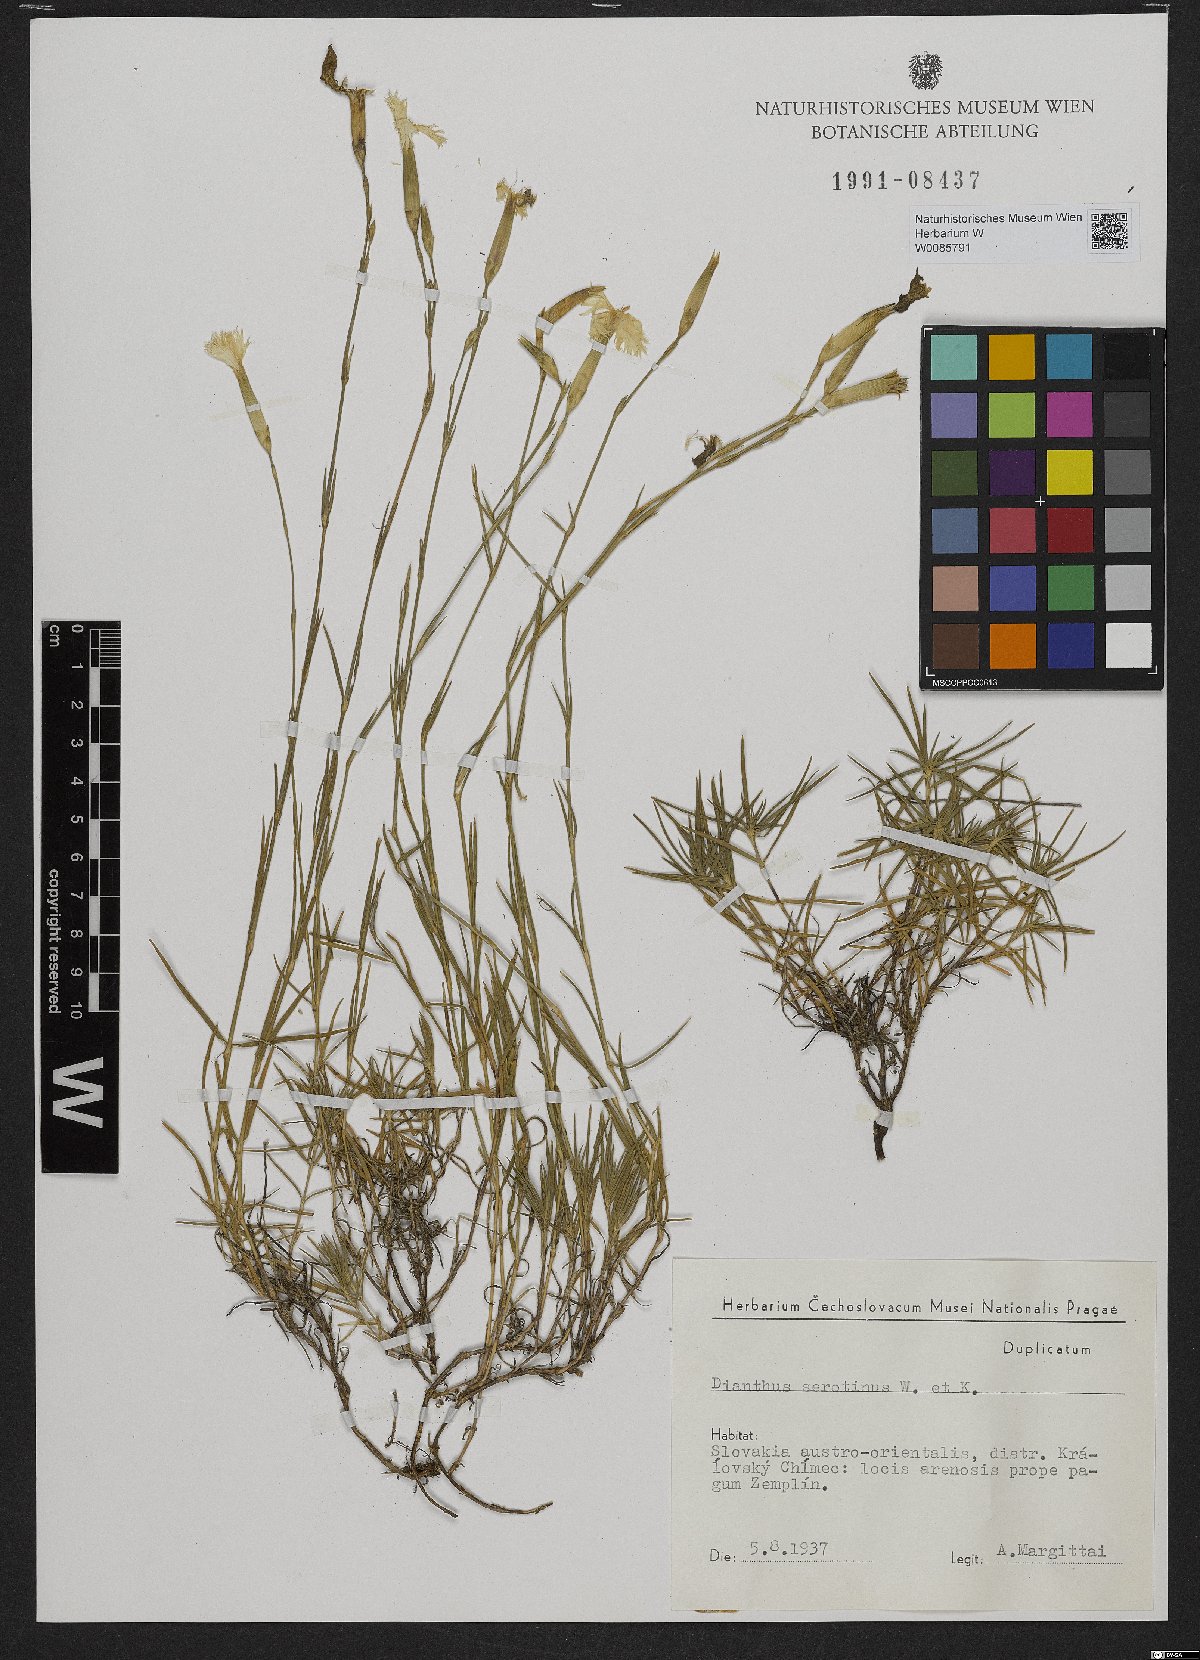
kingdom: Plantae
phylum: Tracheophyta
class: Magnoliopsida
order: Caryophyllales
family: Caryophyllaceae
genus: Dianthus
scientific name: Dianthus serotinus
